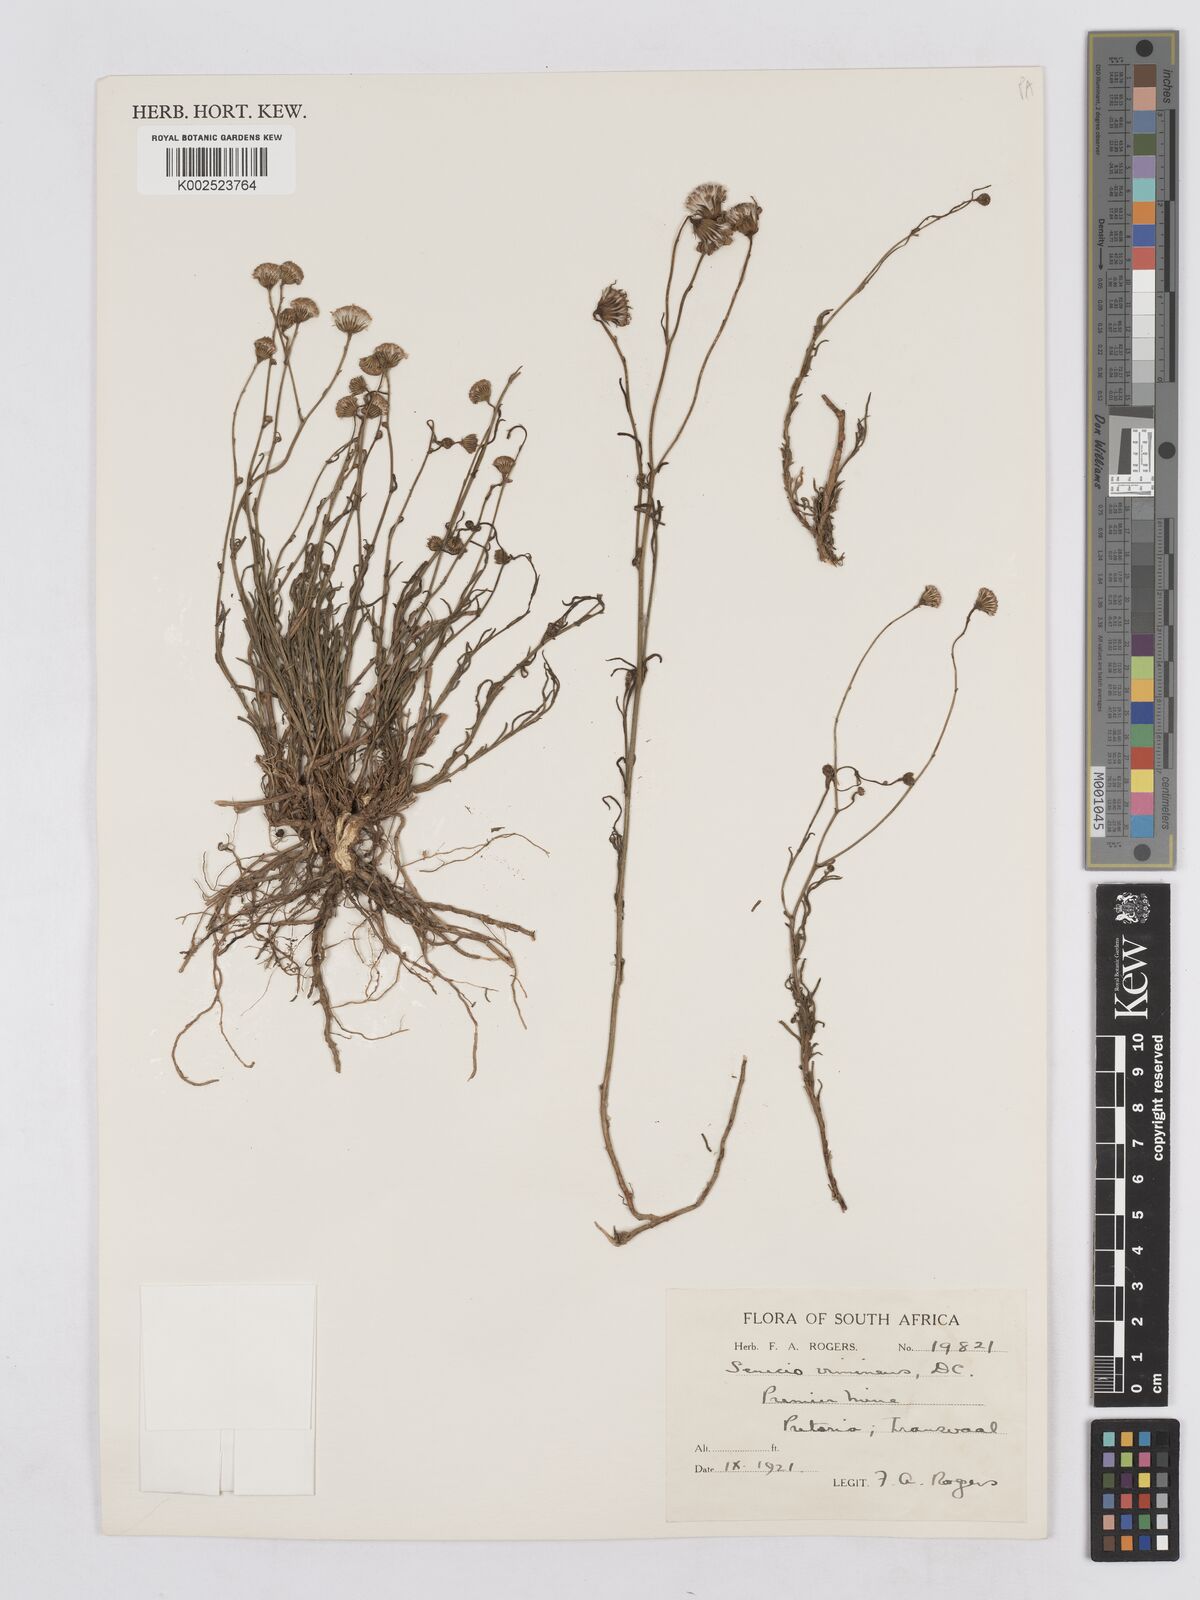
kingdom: Plantae
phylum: Tracheophyta
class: Magnoliopsida
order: Asterales
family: Asteraceae
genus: Senecio
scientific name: Senecio vimineus
